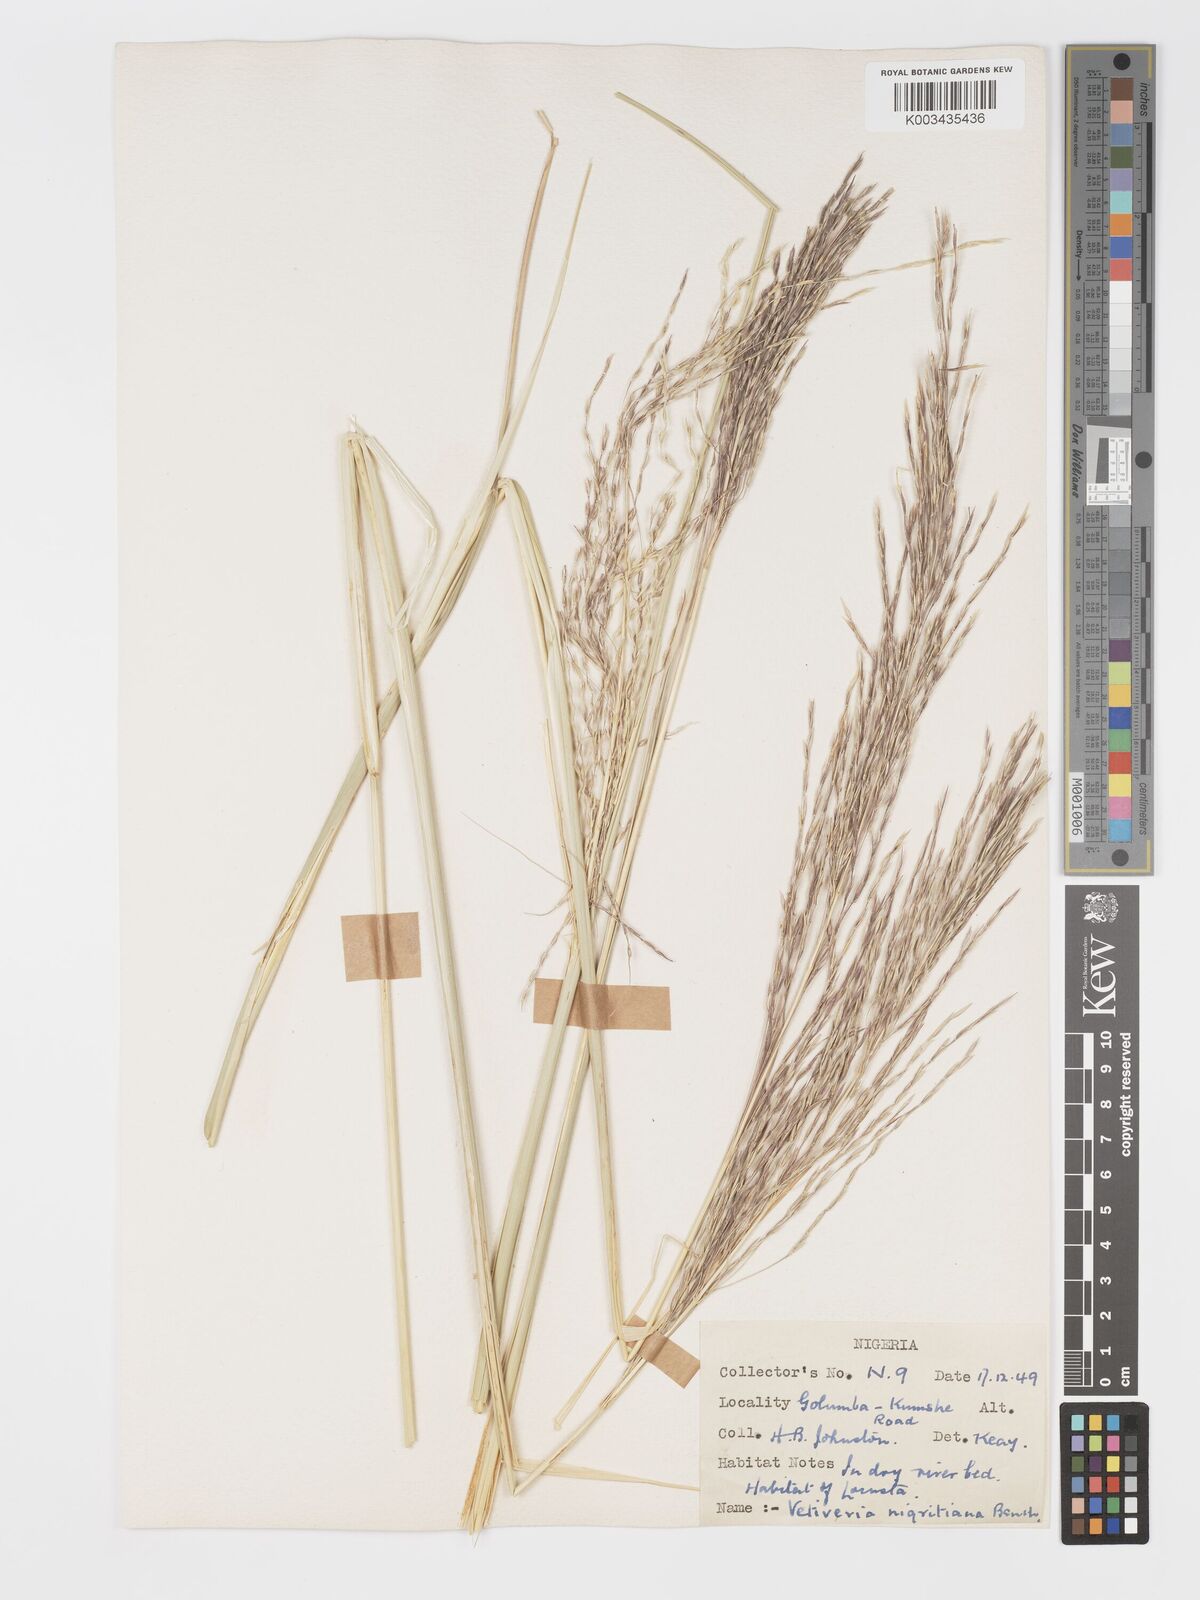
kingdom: Plantae
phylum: Tracheophyta
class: Liliopsida
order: Poales
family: Poaceae
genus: Chrysopogon
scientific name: Chrysopogon nigritanus
